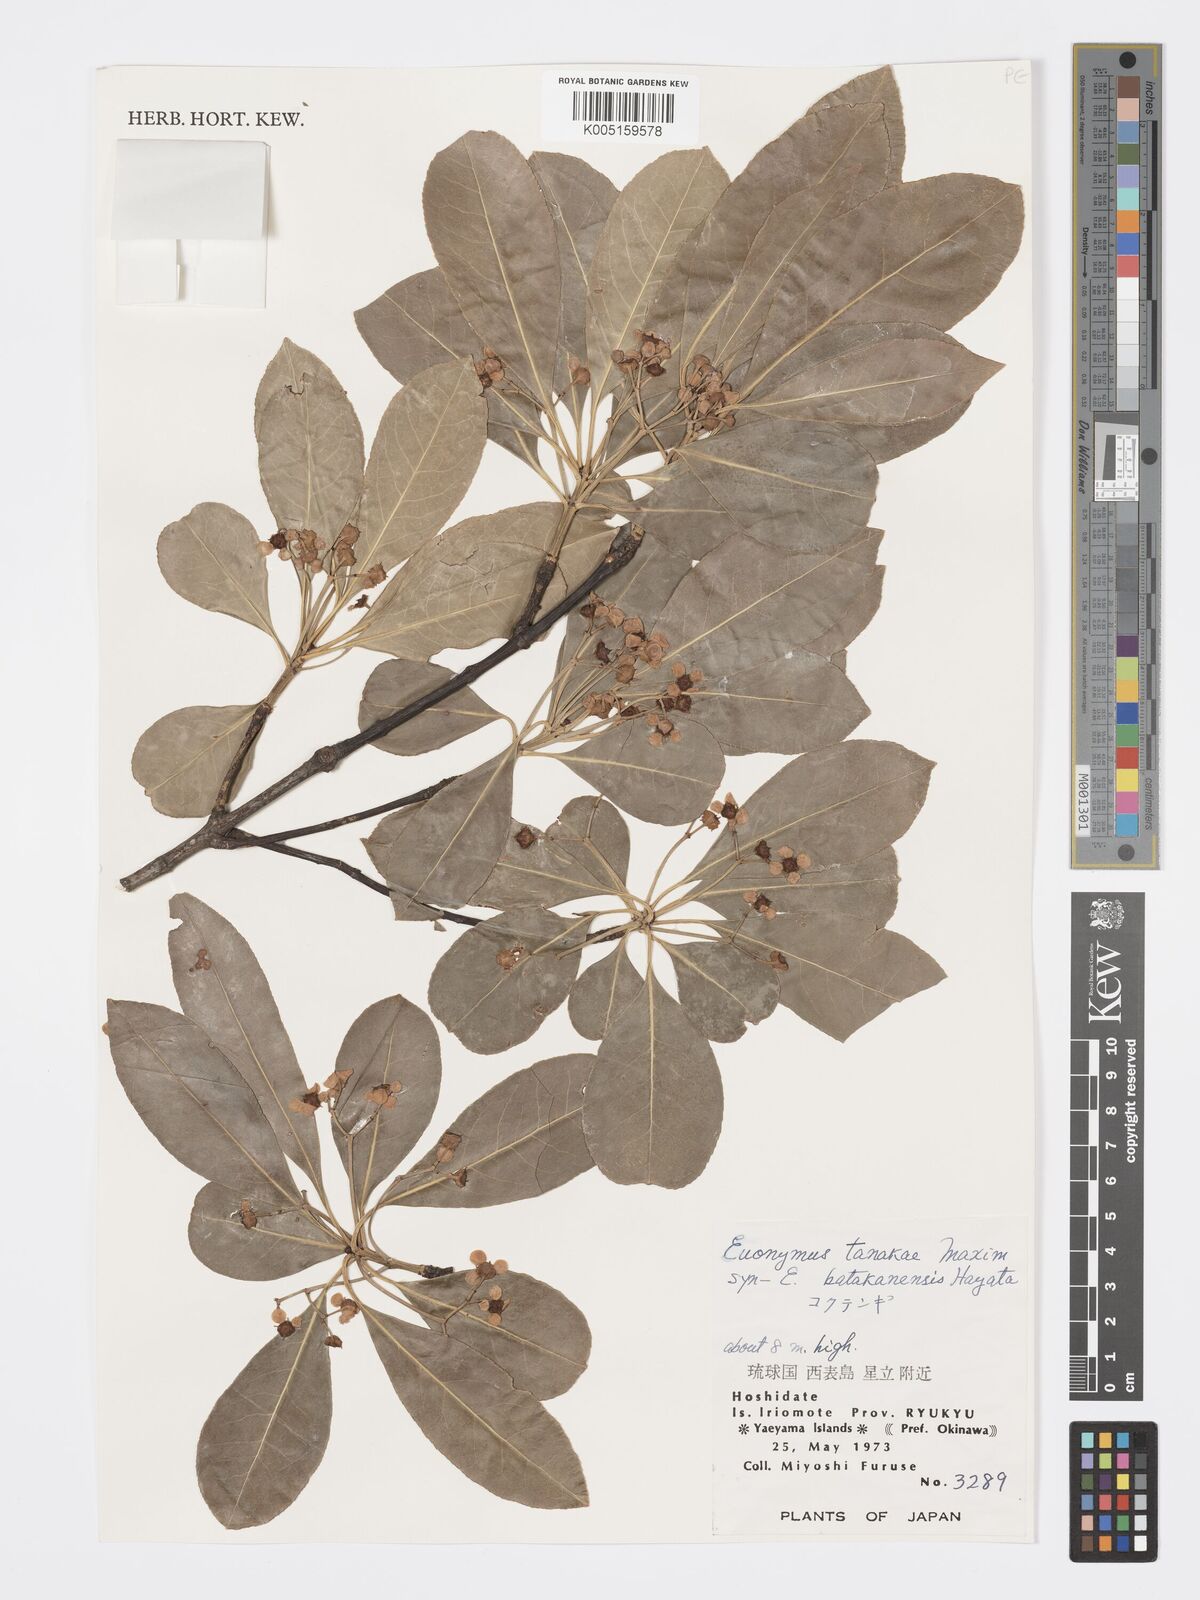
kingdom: Plantae
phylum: Tracheophyta
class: Magnoliopsida
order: Celastrales
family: Celastraceae
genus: Euonymus
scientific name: Euonymus carnosus
